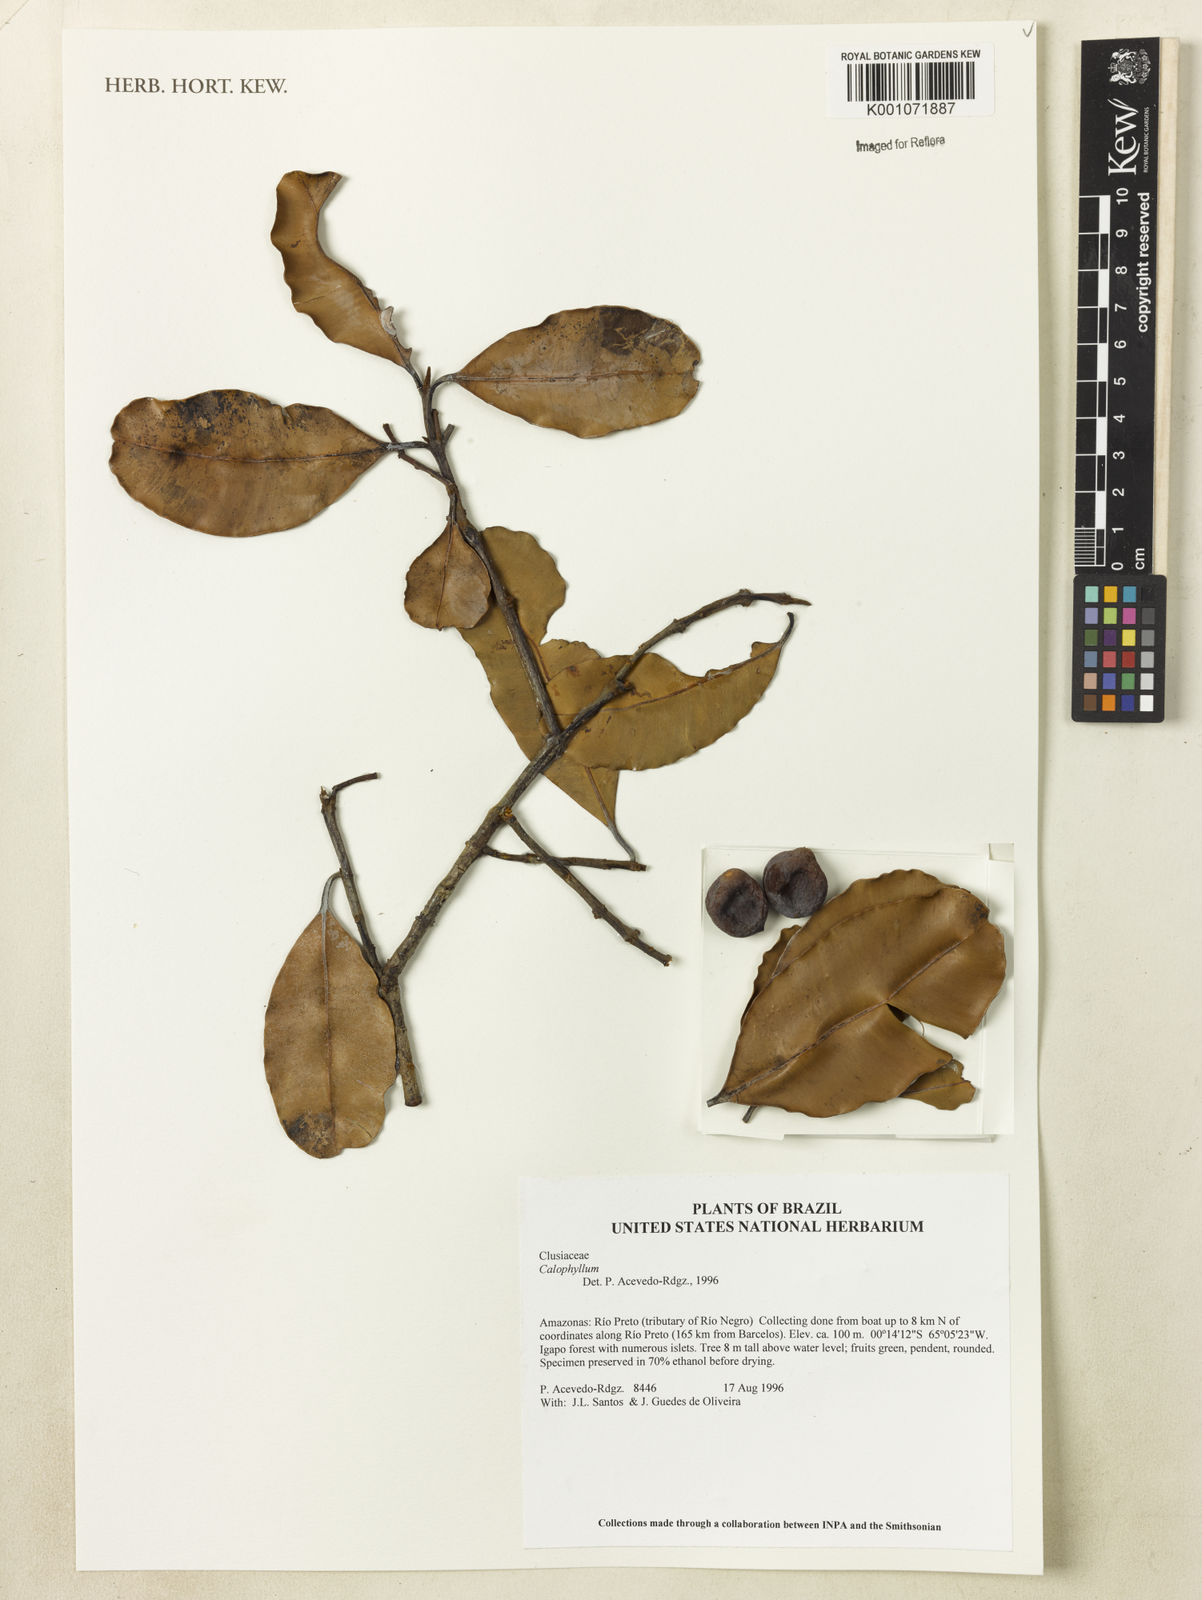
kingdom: Plantae
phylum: Tracheophyta
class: Magnoliopsida
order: Malpighiales
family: Calophyllaceae
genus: Calophyllum
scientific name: Calophyllum
